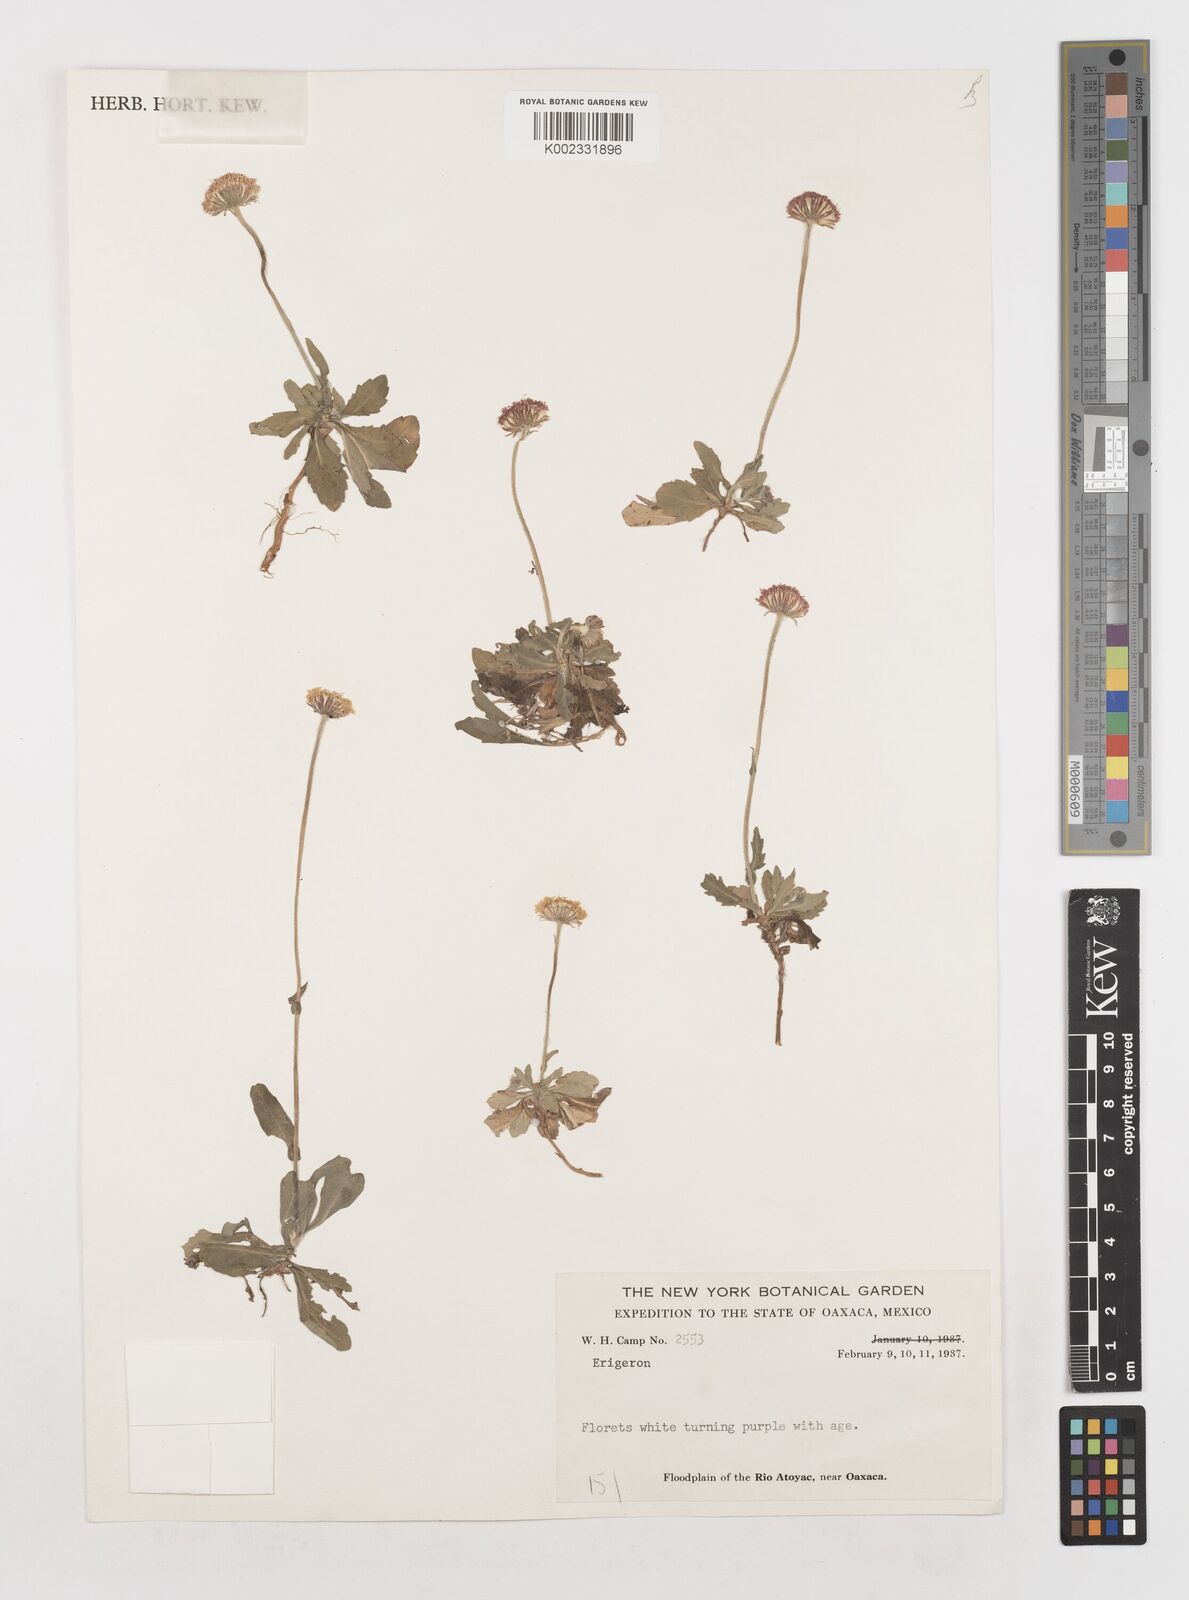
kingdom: Plantae
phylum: Tracheophyta
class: Magnoliopsida
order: Asterales
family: Asteraceae
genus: Erigeron
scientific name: Erigeron
